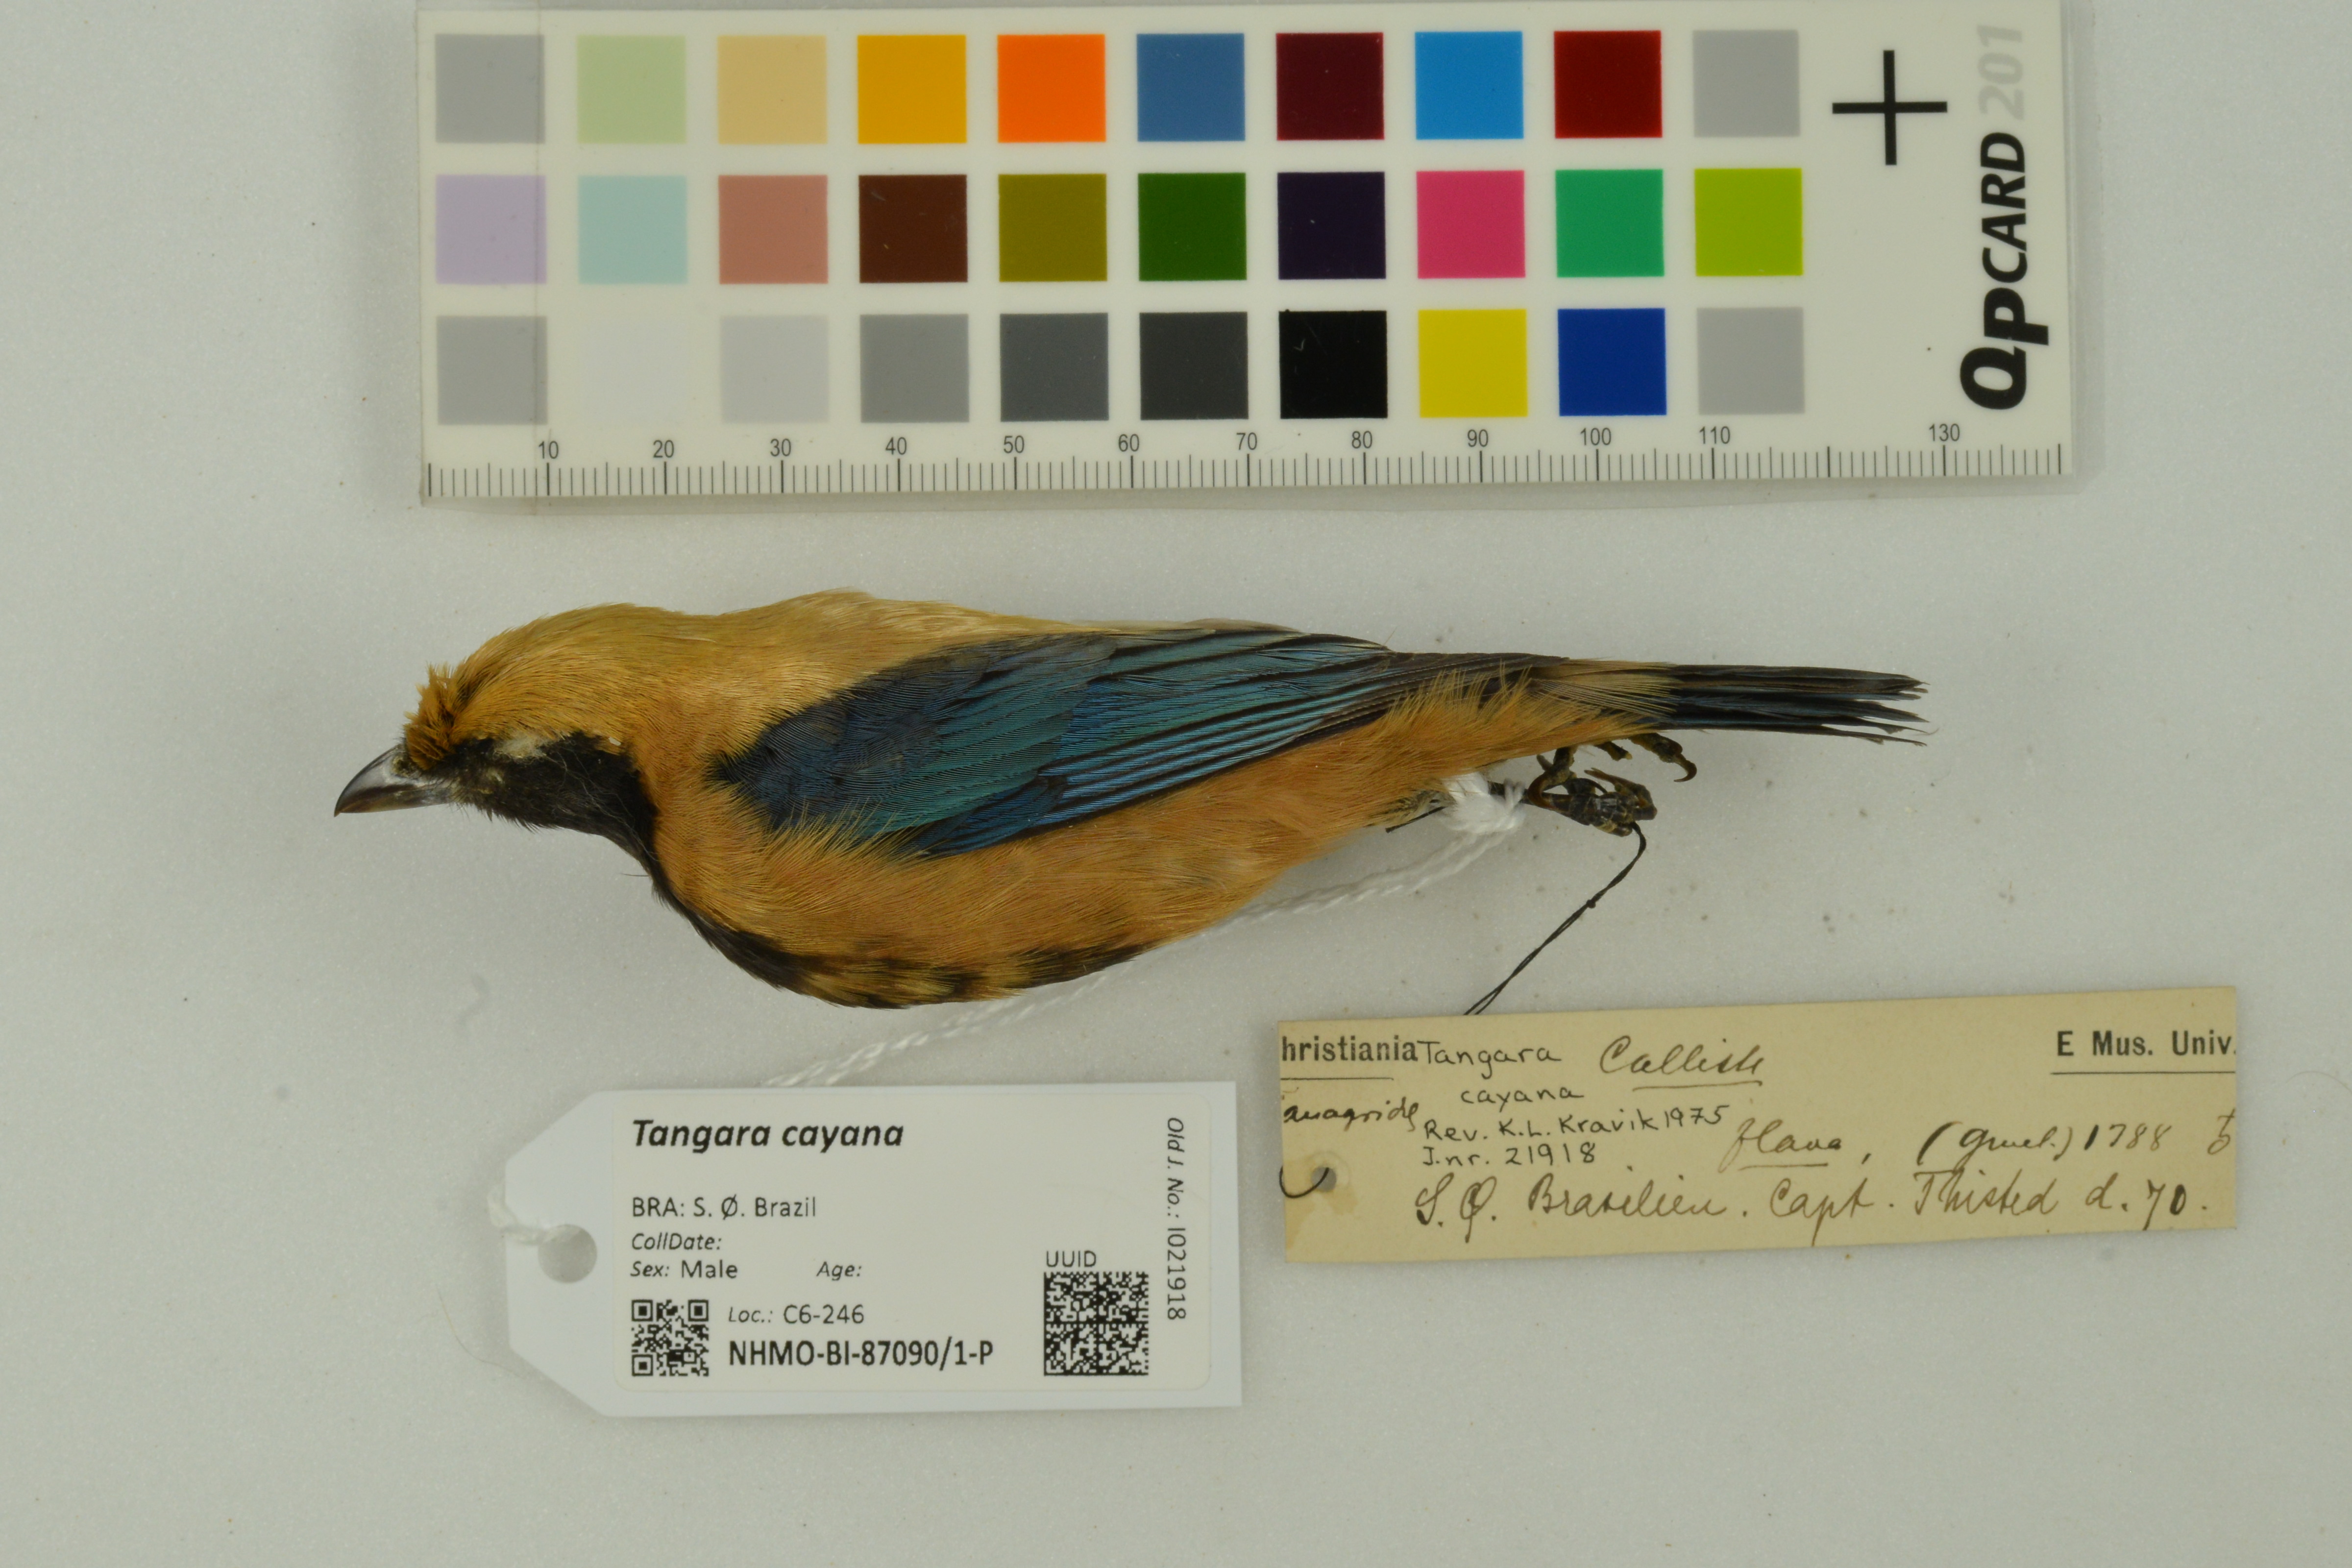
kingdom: Animalia
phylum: Chordata
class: Aves
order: Passeriformes
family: Thraupidae
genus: Stilpnia
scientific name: Stilpnia cayana
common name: Burnished-buff tanager
